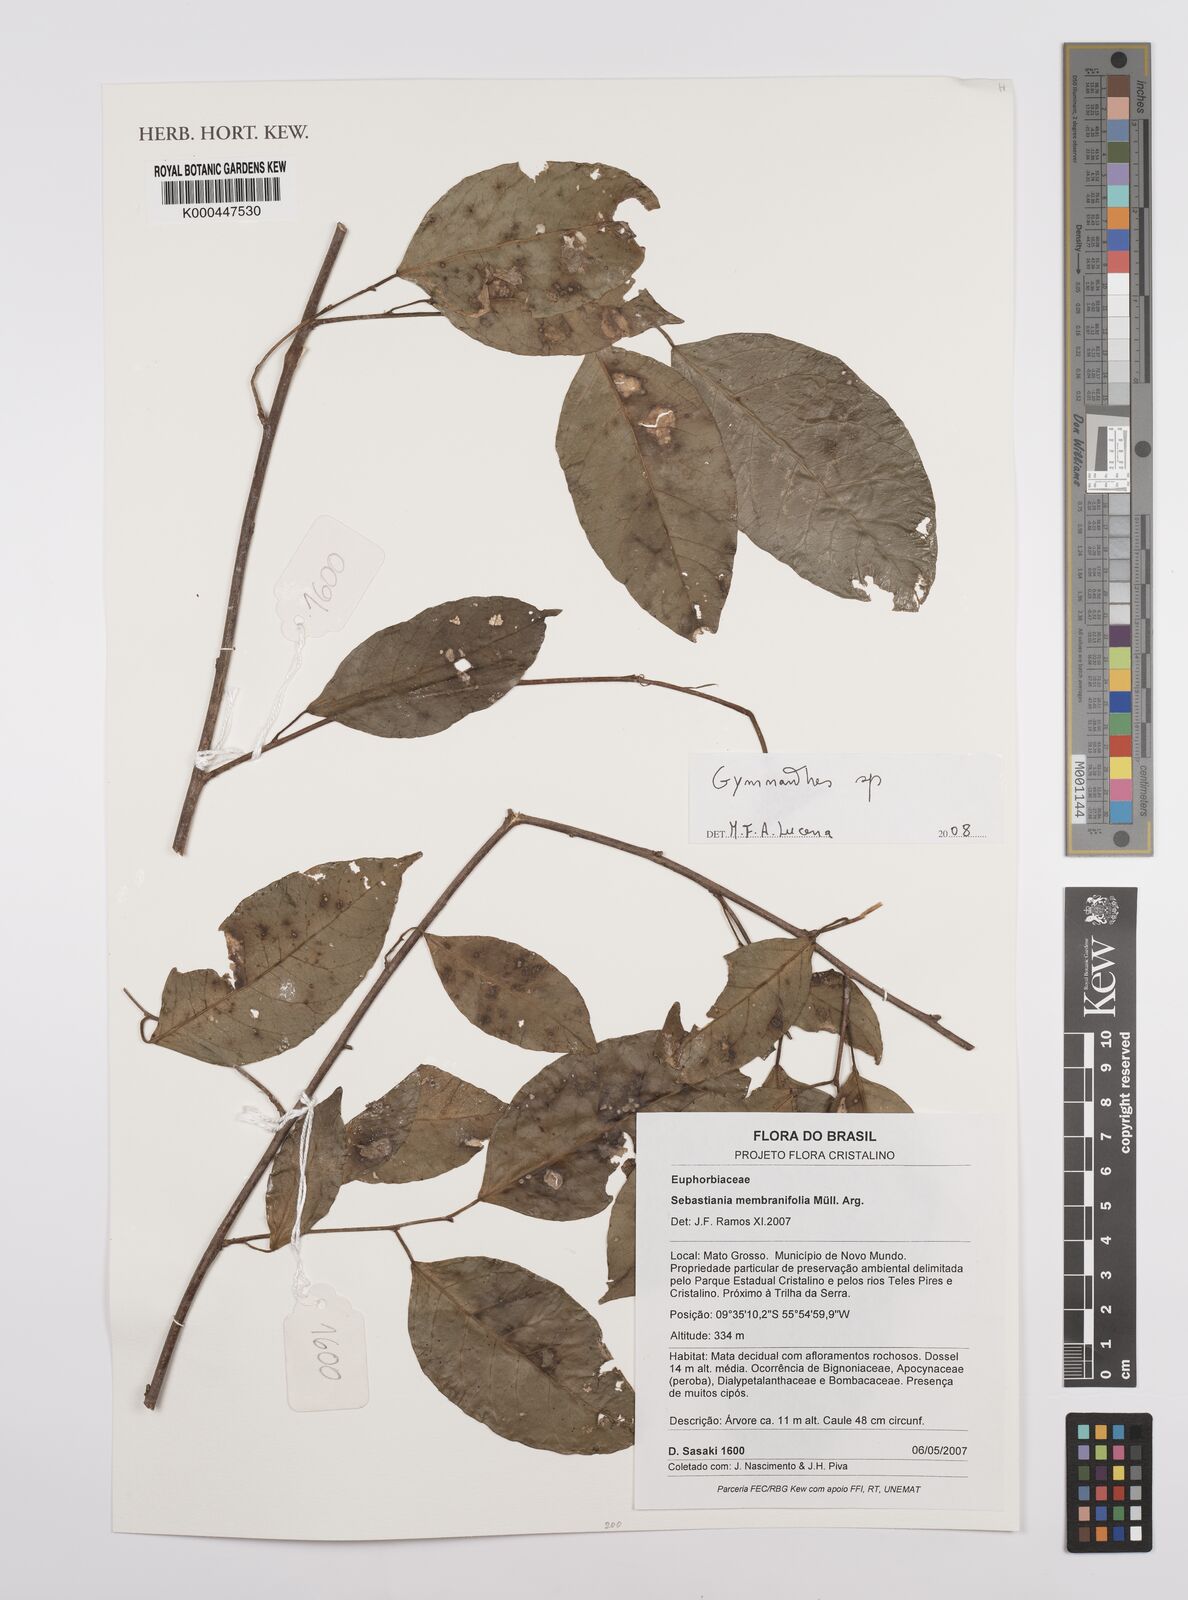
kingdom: Plantae
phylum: Tracheophyta
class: Magnoliopsida
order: Malpighiales
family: Euphorbiaceae
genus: Gymnanthes
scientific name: Gymnanthes
